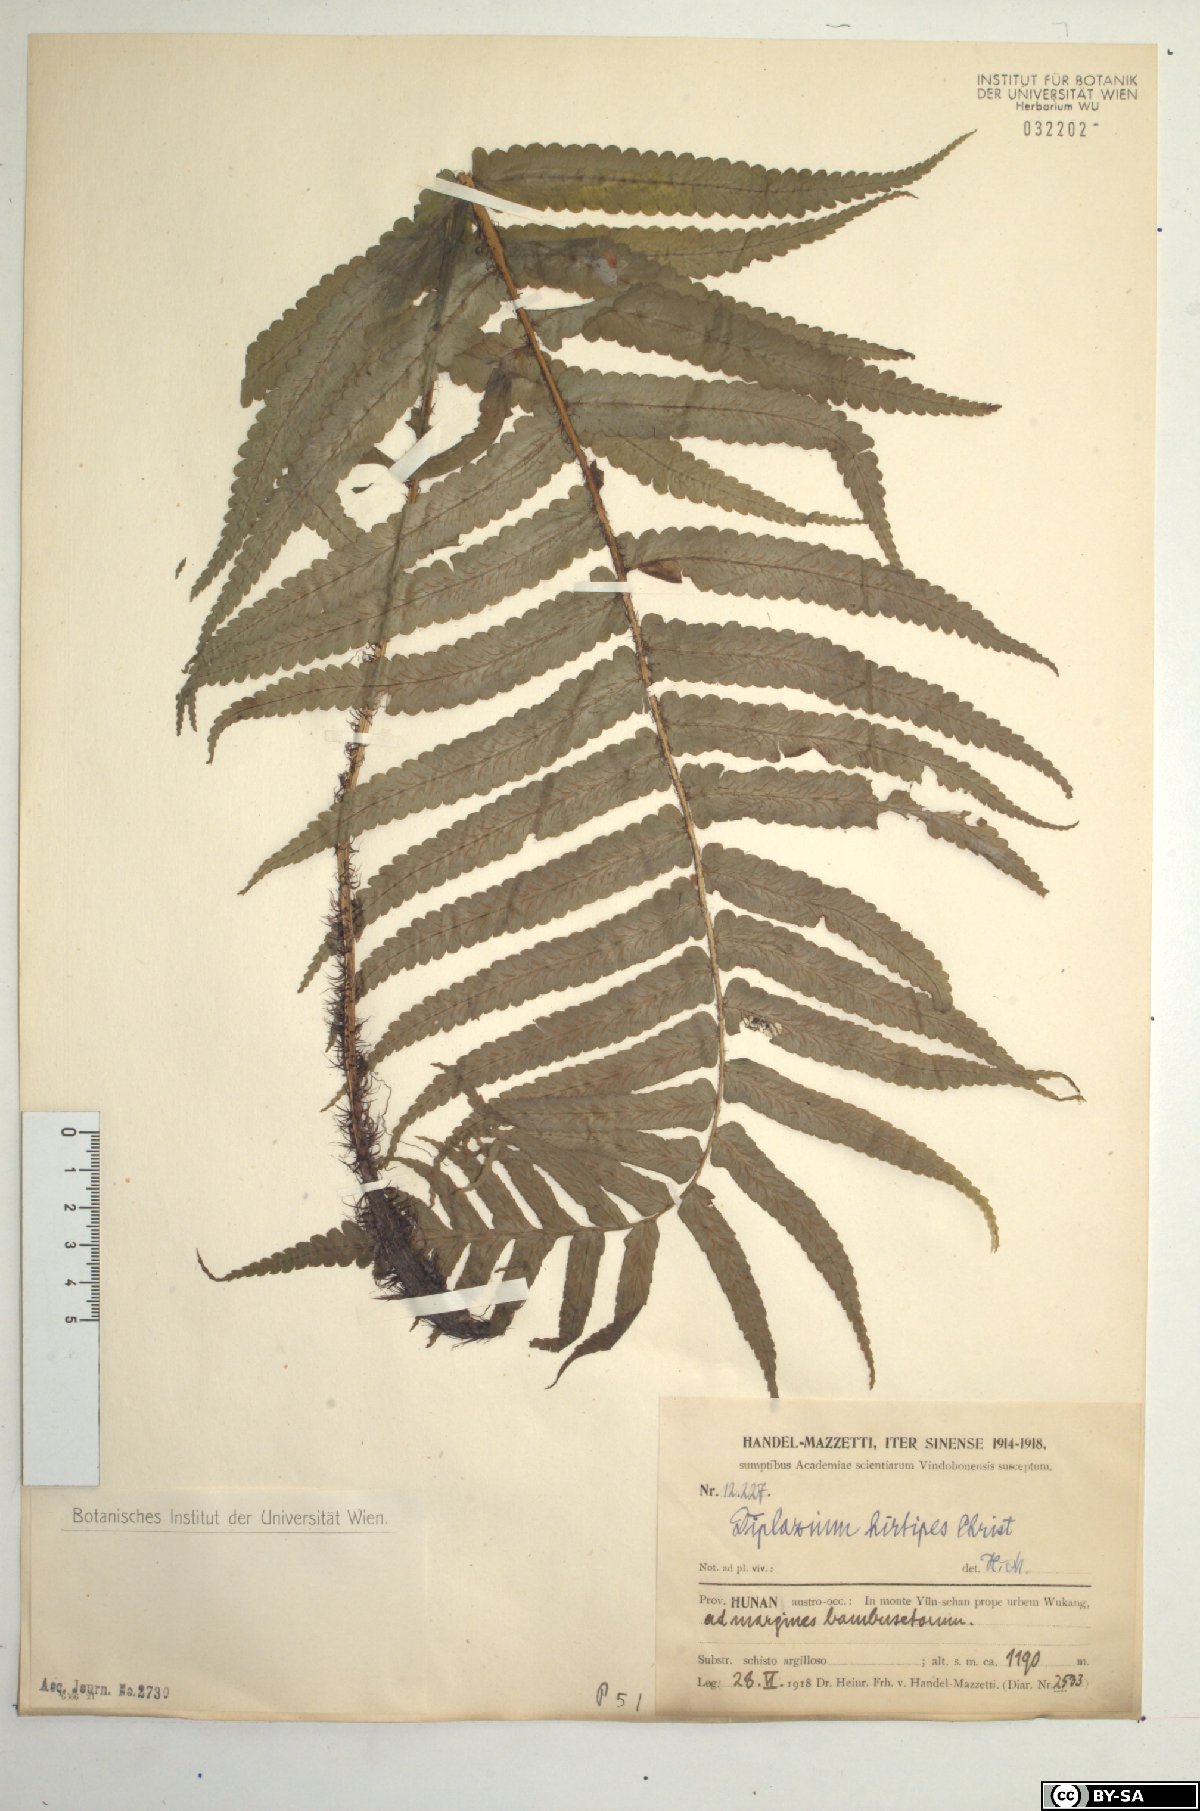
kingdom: Plantae
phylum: Tracheophyta
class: Polypodiopsida
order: Polypodiales
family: Athyriaceae
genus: Diplazium
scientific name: Diplazium hirtipes
